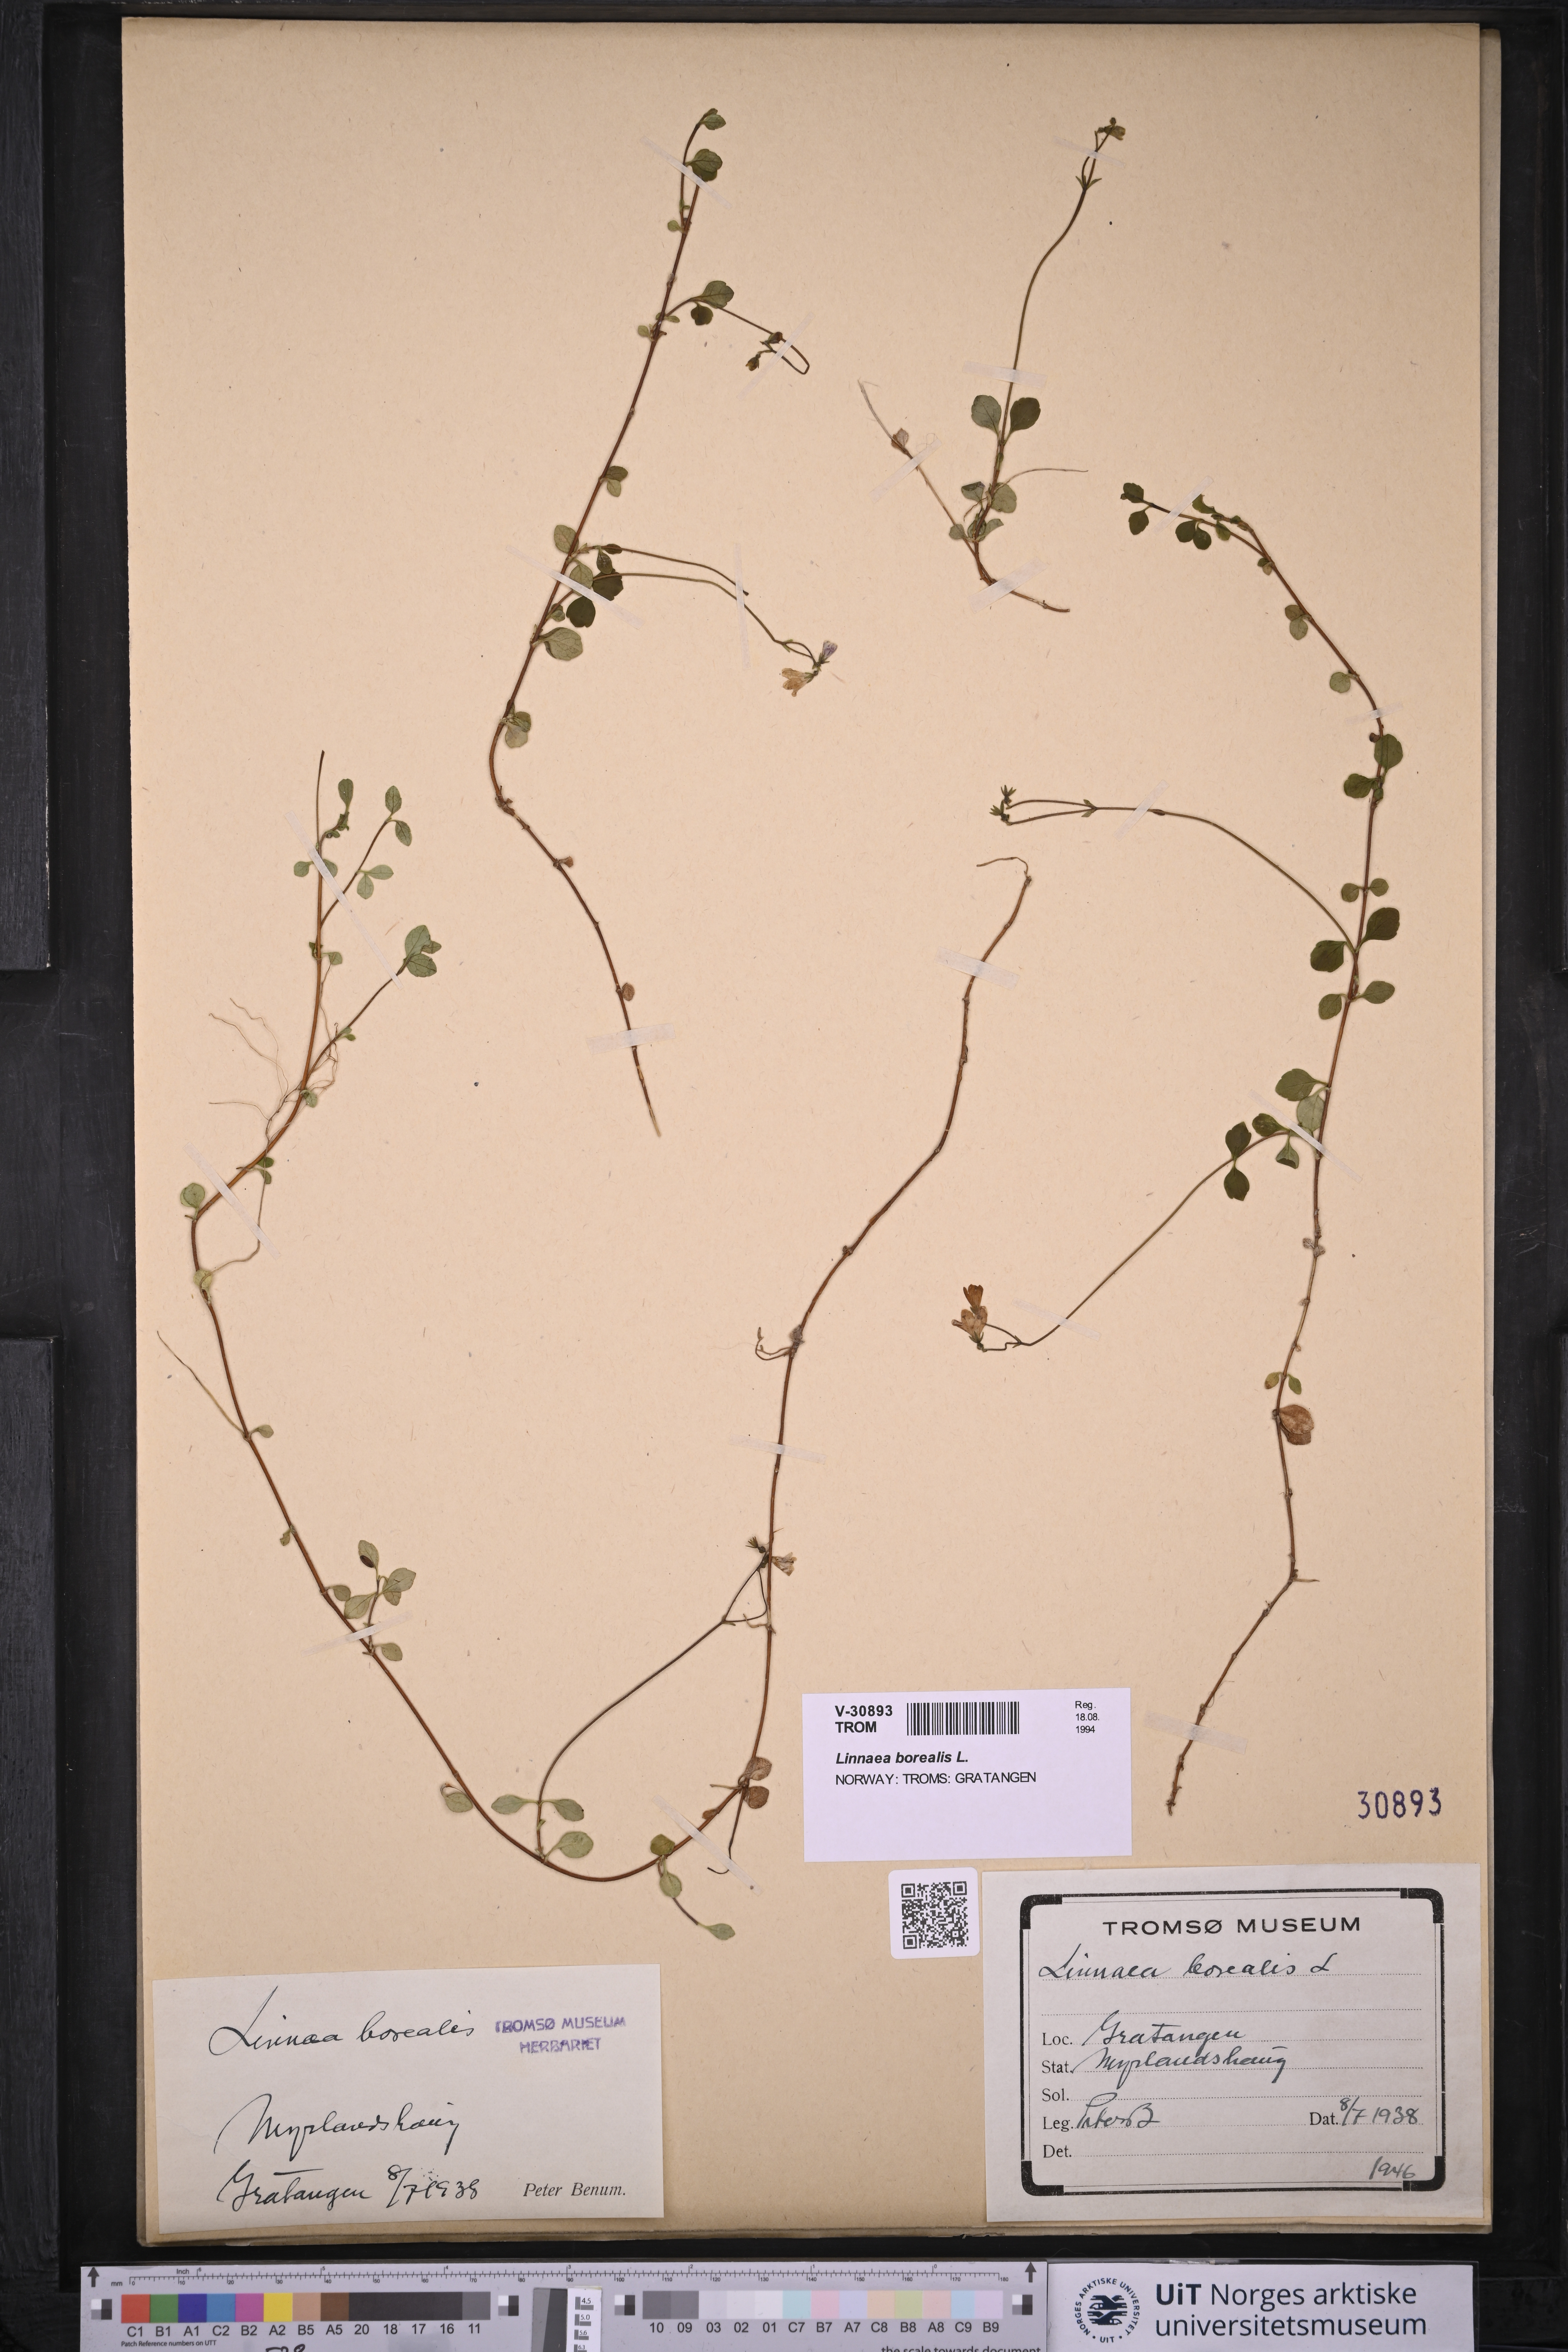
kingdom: Plantae
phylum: Tracheophyta
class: Magnoliopsida
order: Dipsacales
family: Caprifoliaceae
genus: Linnaea
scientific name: Linnaea borealis
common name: Twinflower
